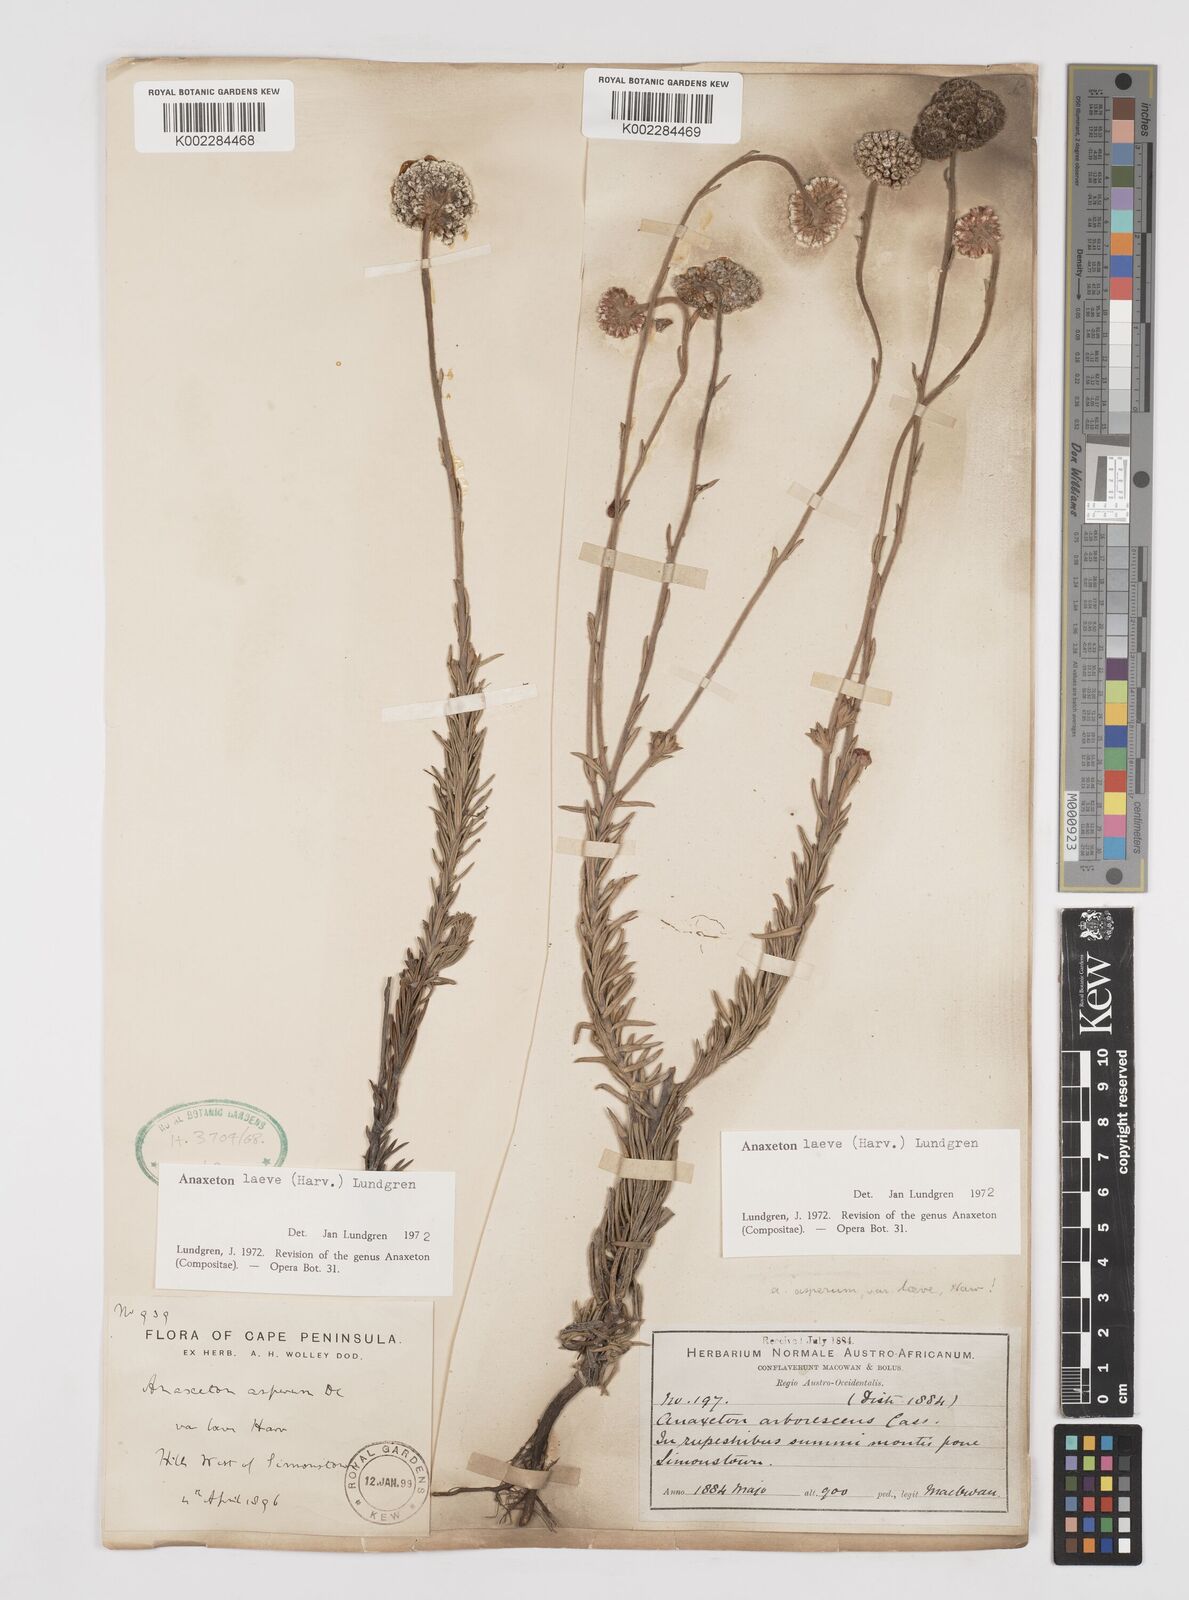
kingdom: Plantae
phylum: Tracheophyta
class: Magnoliopsida
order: Asterales
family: Asteraceae
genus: Anaxeton
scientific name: Anaxeton laeve
